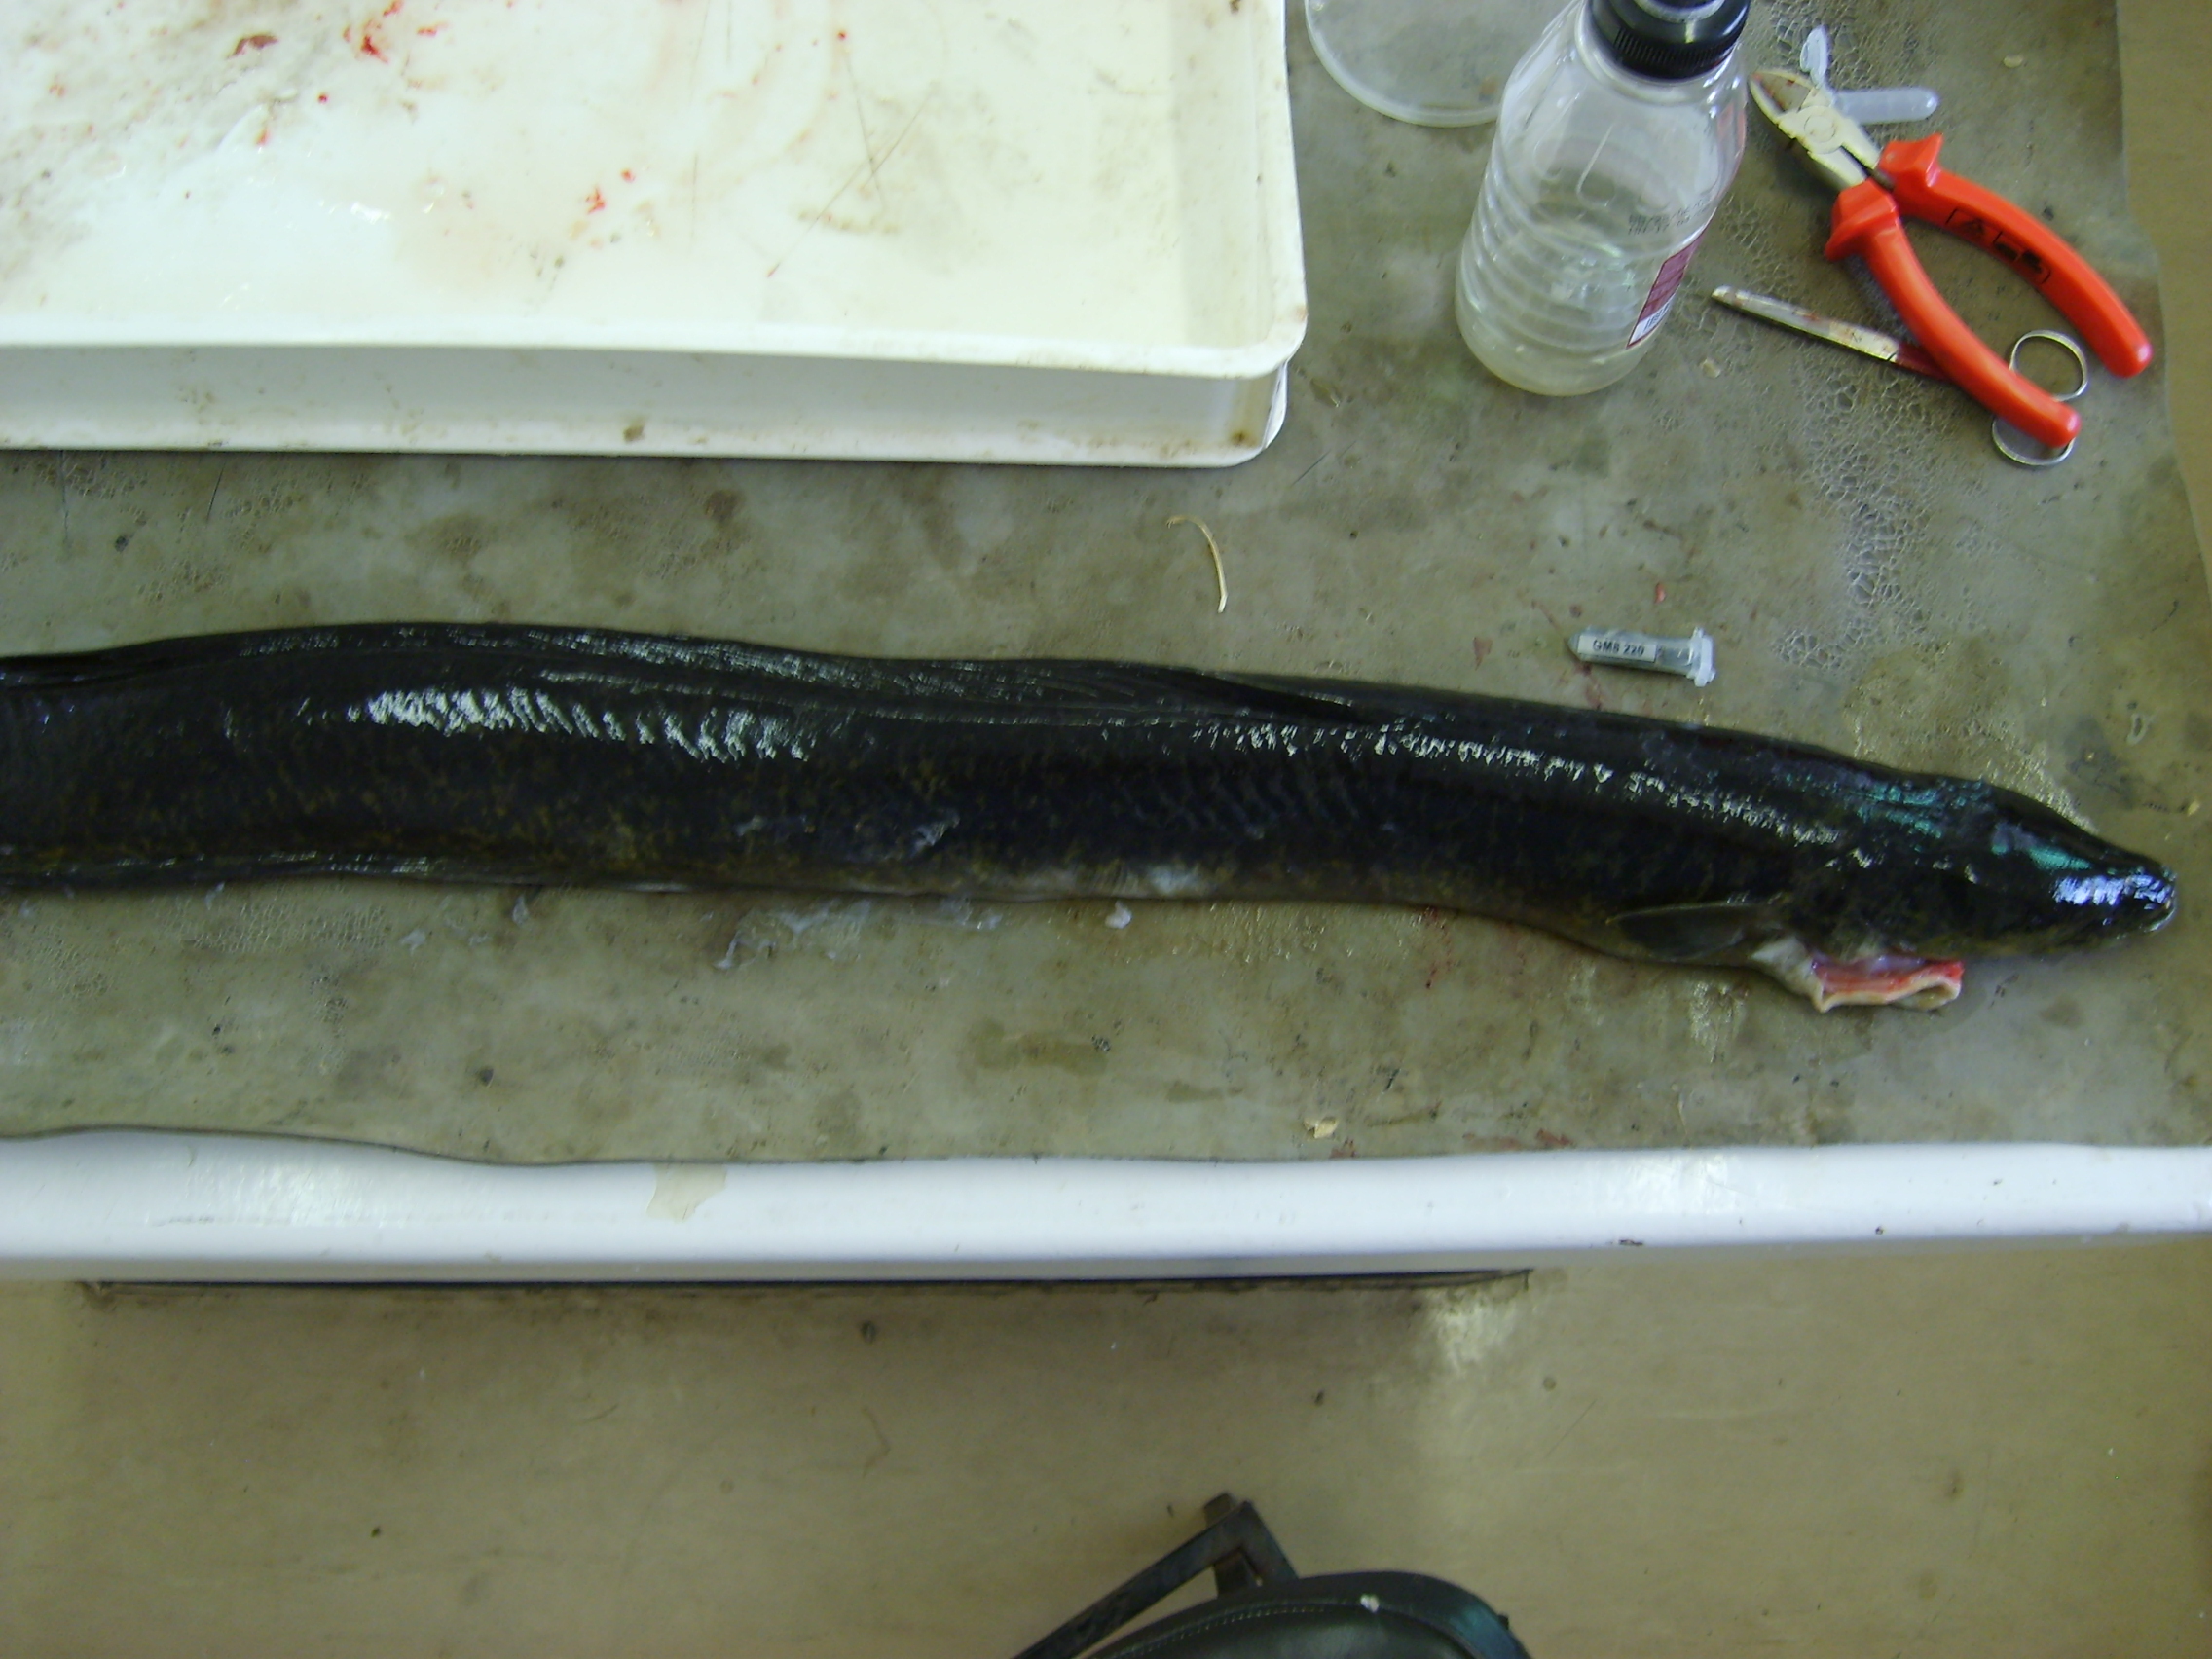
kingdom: Animalia
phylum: Chordata
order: Anguilliformes
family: Anguillidae
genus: Anguilla
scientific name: Anguilla marmorata
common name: Giant mottled eel
